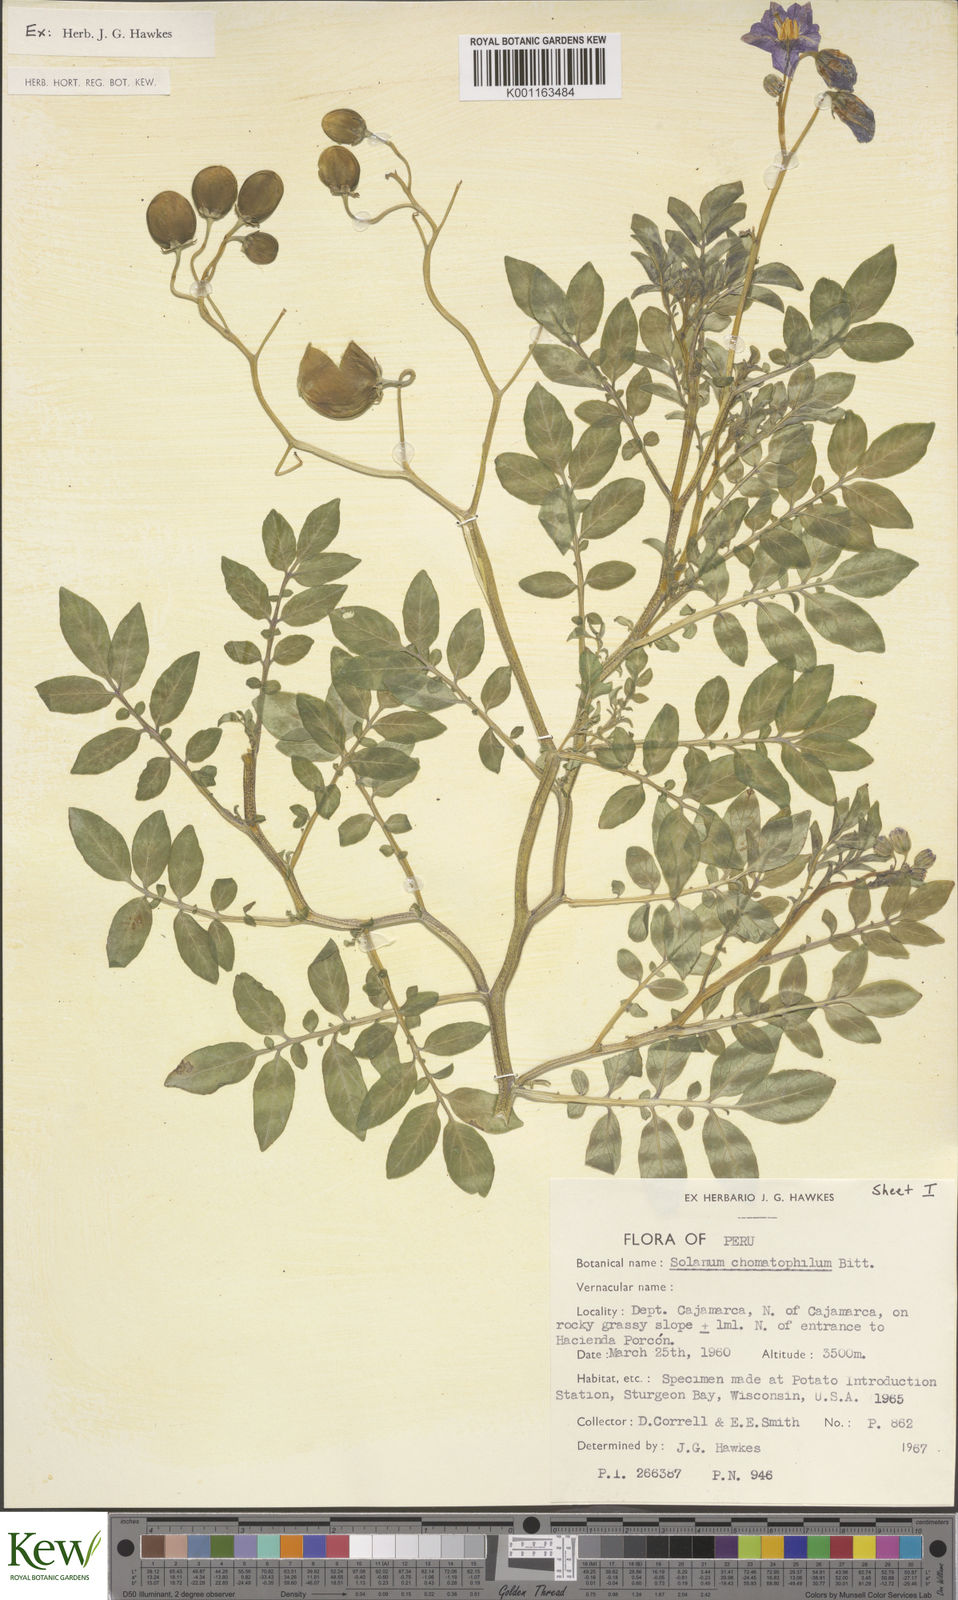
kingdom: Plantae
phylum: Tracheophyta
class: Magnoliopsida
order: Solanales
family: Solanaceae
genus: Solanum
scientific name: Solanum chomatophilum
